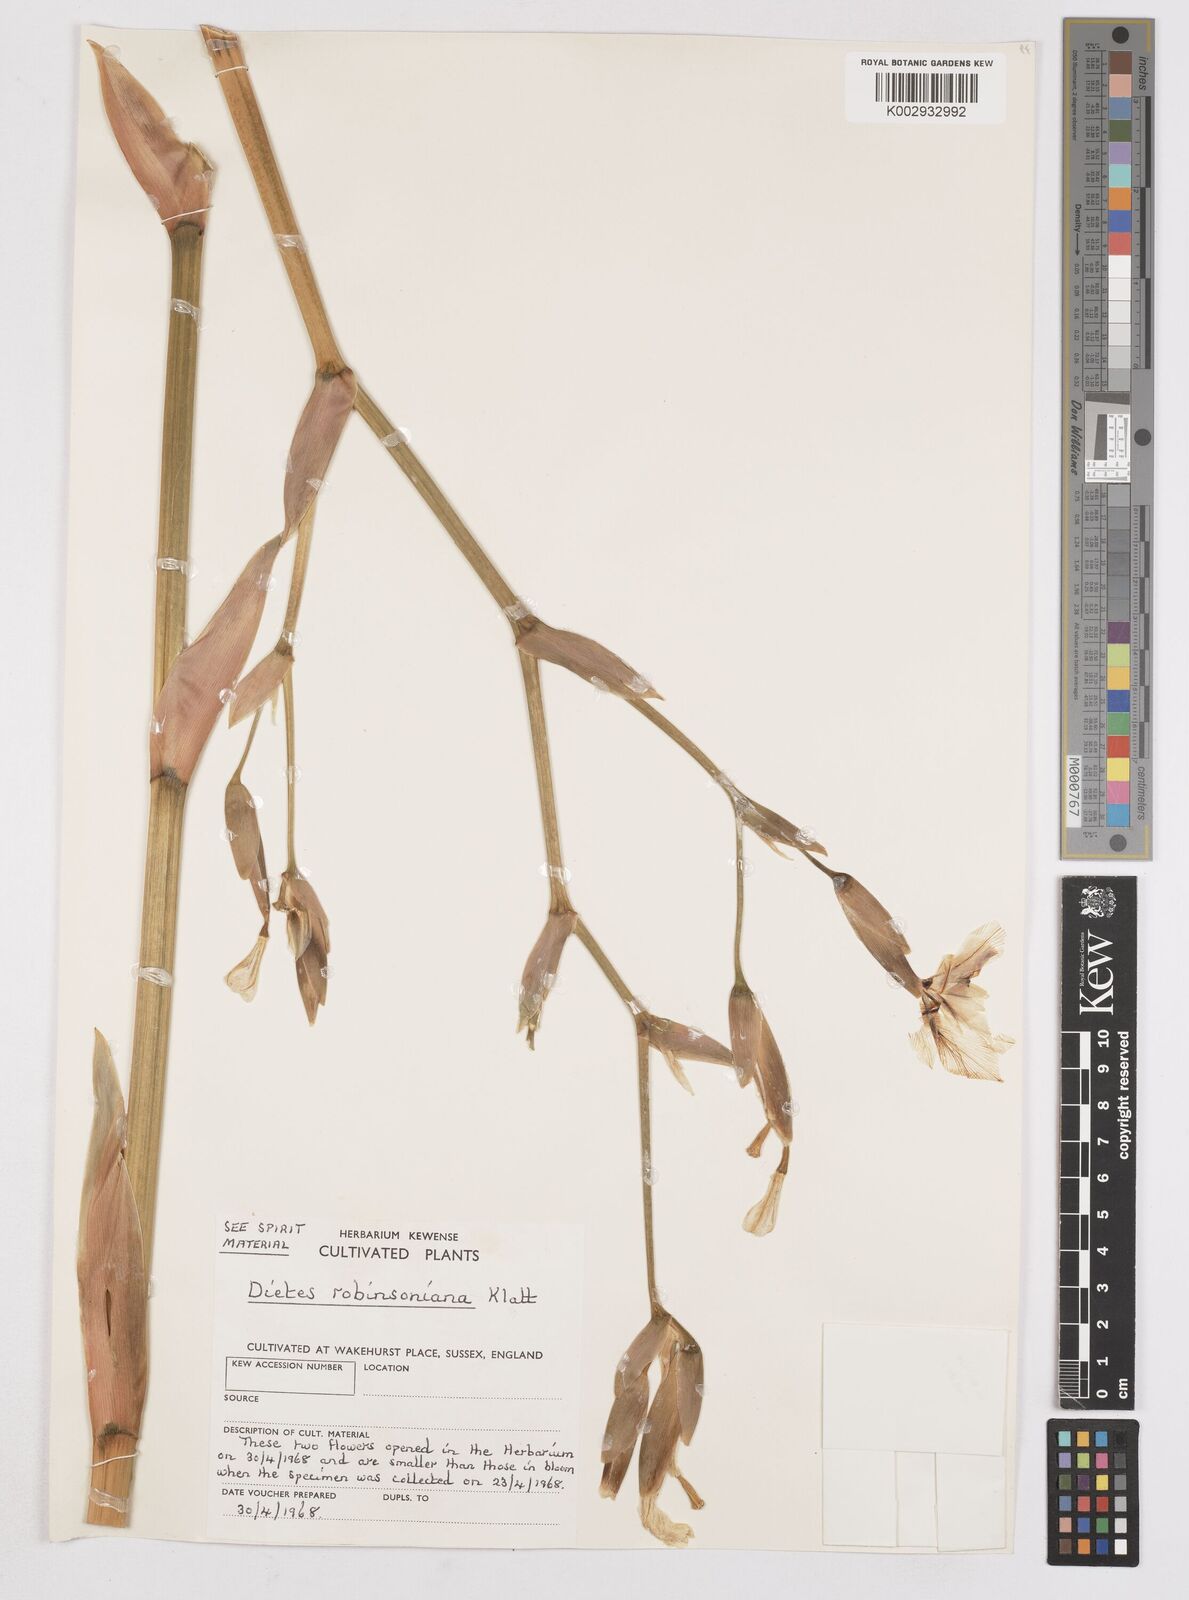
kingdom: Plantae
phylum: Tracheophyta
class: Liliopsida
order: Asparagales
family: Iridaceae
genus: Dietes
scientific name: Dietes robinsoniana
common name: Wedding-lily
